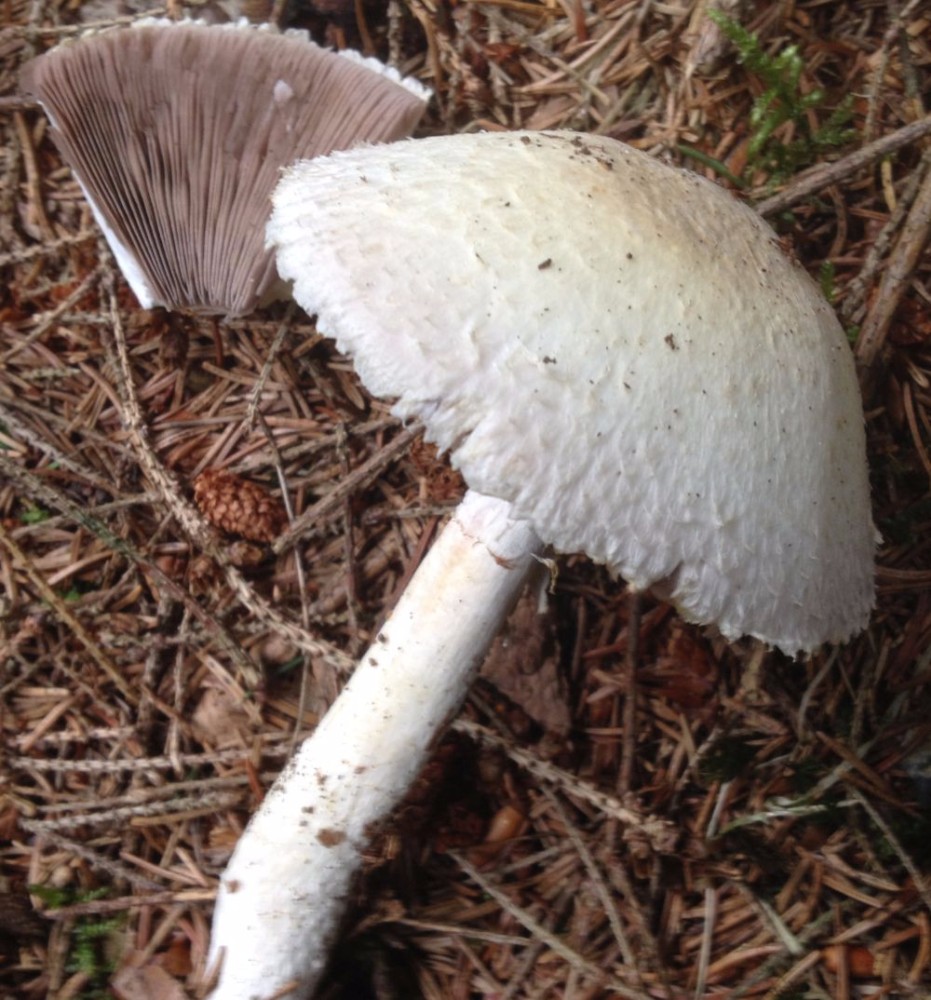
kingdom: Fungi
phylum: Basidiomycota
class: Agaricomycetes
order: Agaricales
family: Agaricaceae
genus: Agaricus
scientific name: Agaricus
